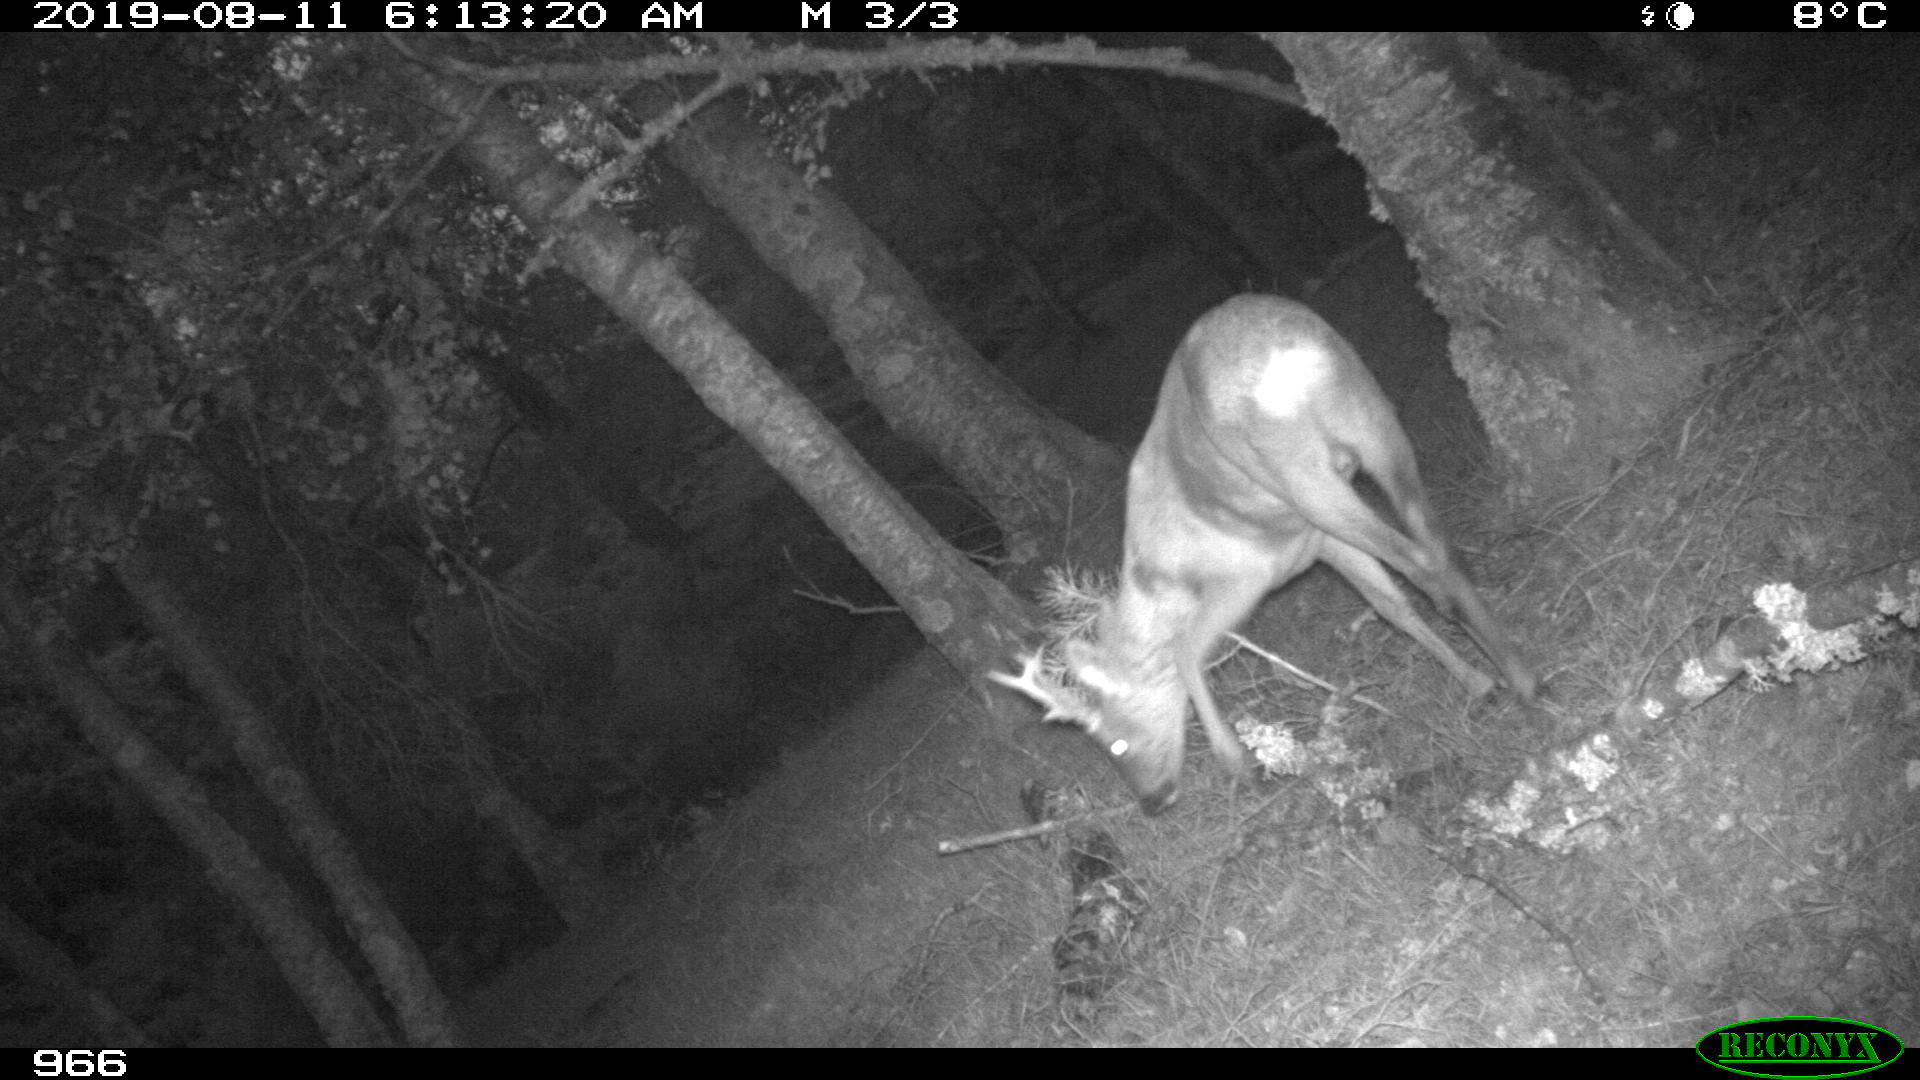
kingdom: Animalia
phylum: Chordata
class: Mammalia
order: Artiodactyla
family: Cervidae
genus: Capreolus
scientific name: Capreolus capreolus
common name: Western roe deer
